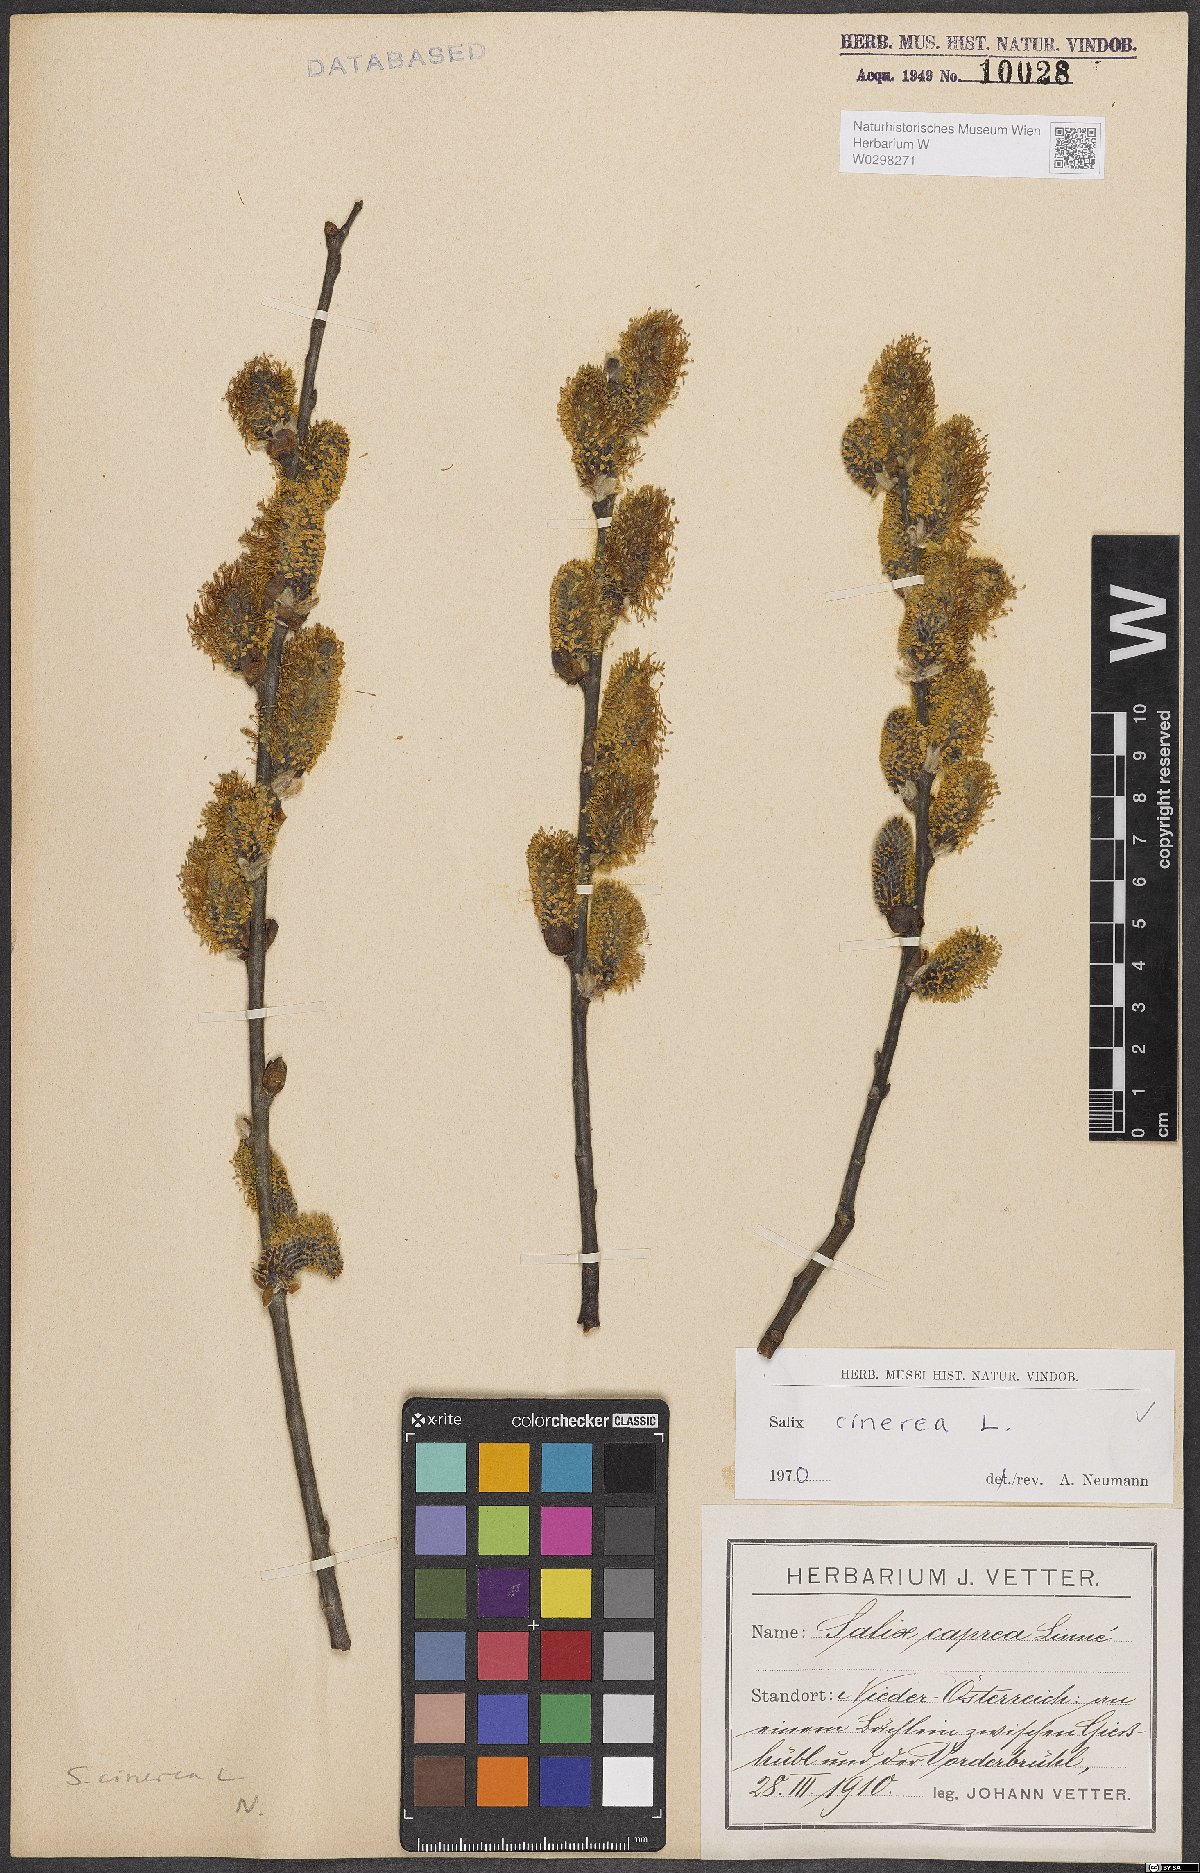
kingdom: Plantae
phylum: Tracheophyta
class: Magnoliopsida
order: Malpighiales
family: Salicaceae
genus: Salix
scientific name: Salix cinerea
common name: Common sallow
